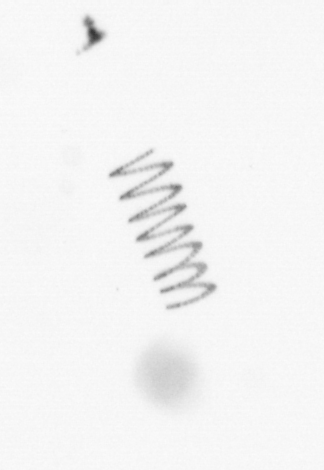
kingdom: Chromista
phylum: Ochrophyta
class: Bacillariophyceae
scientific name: Bacillariophyceae
